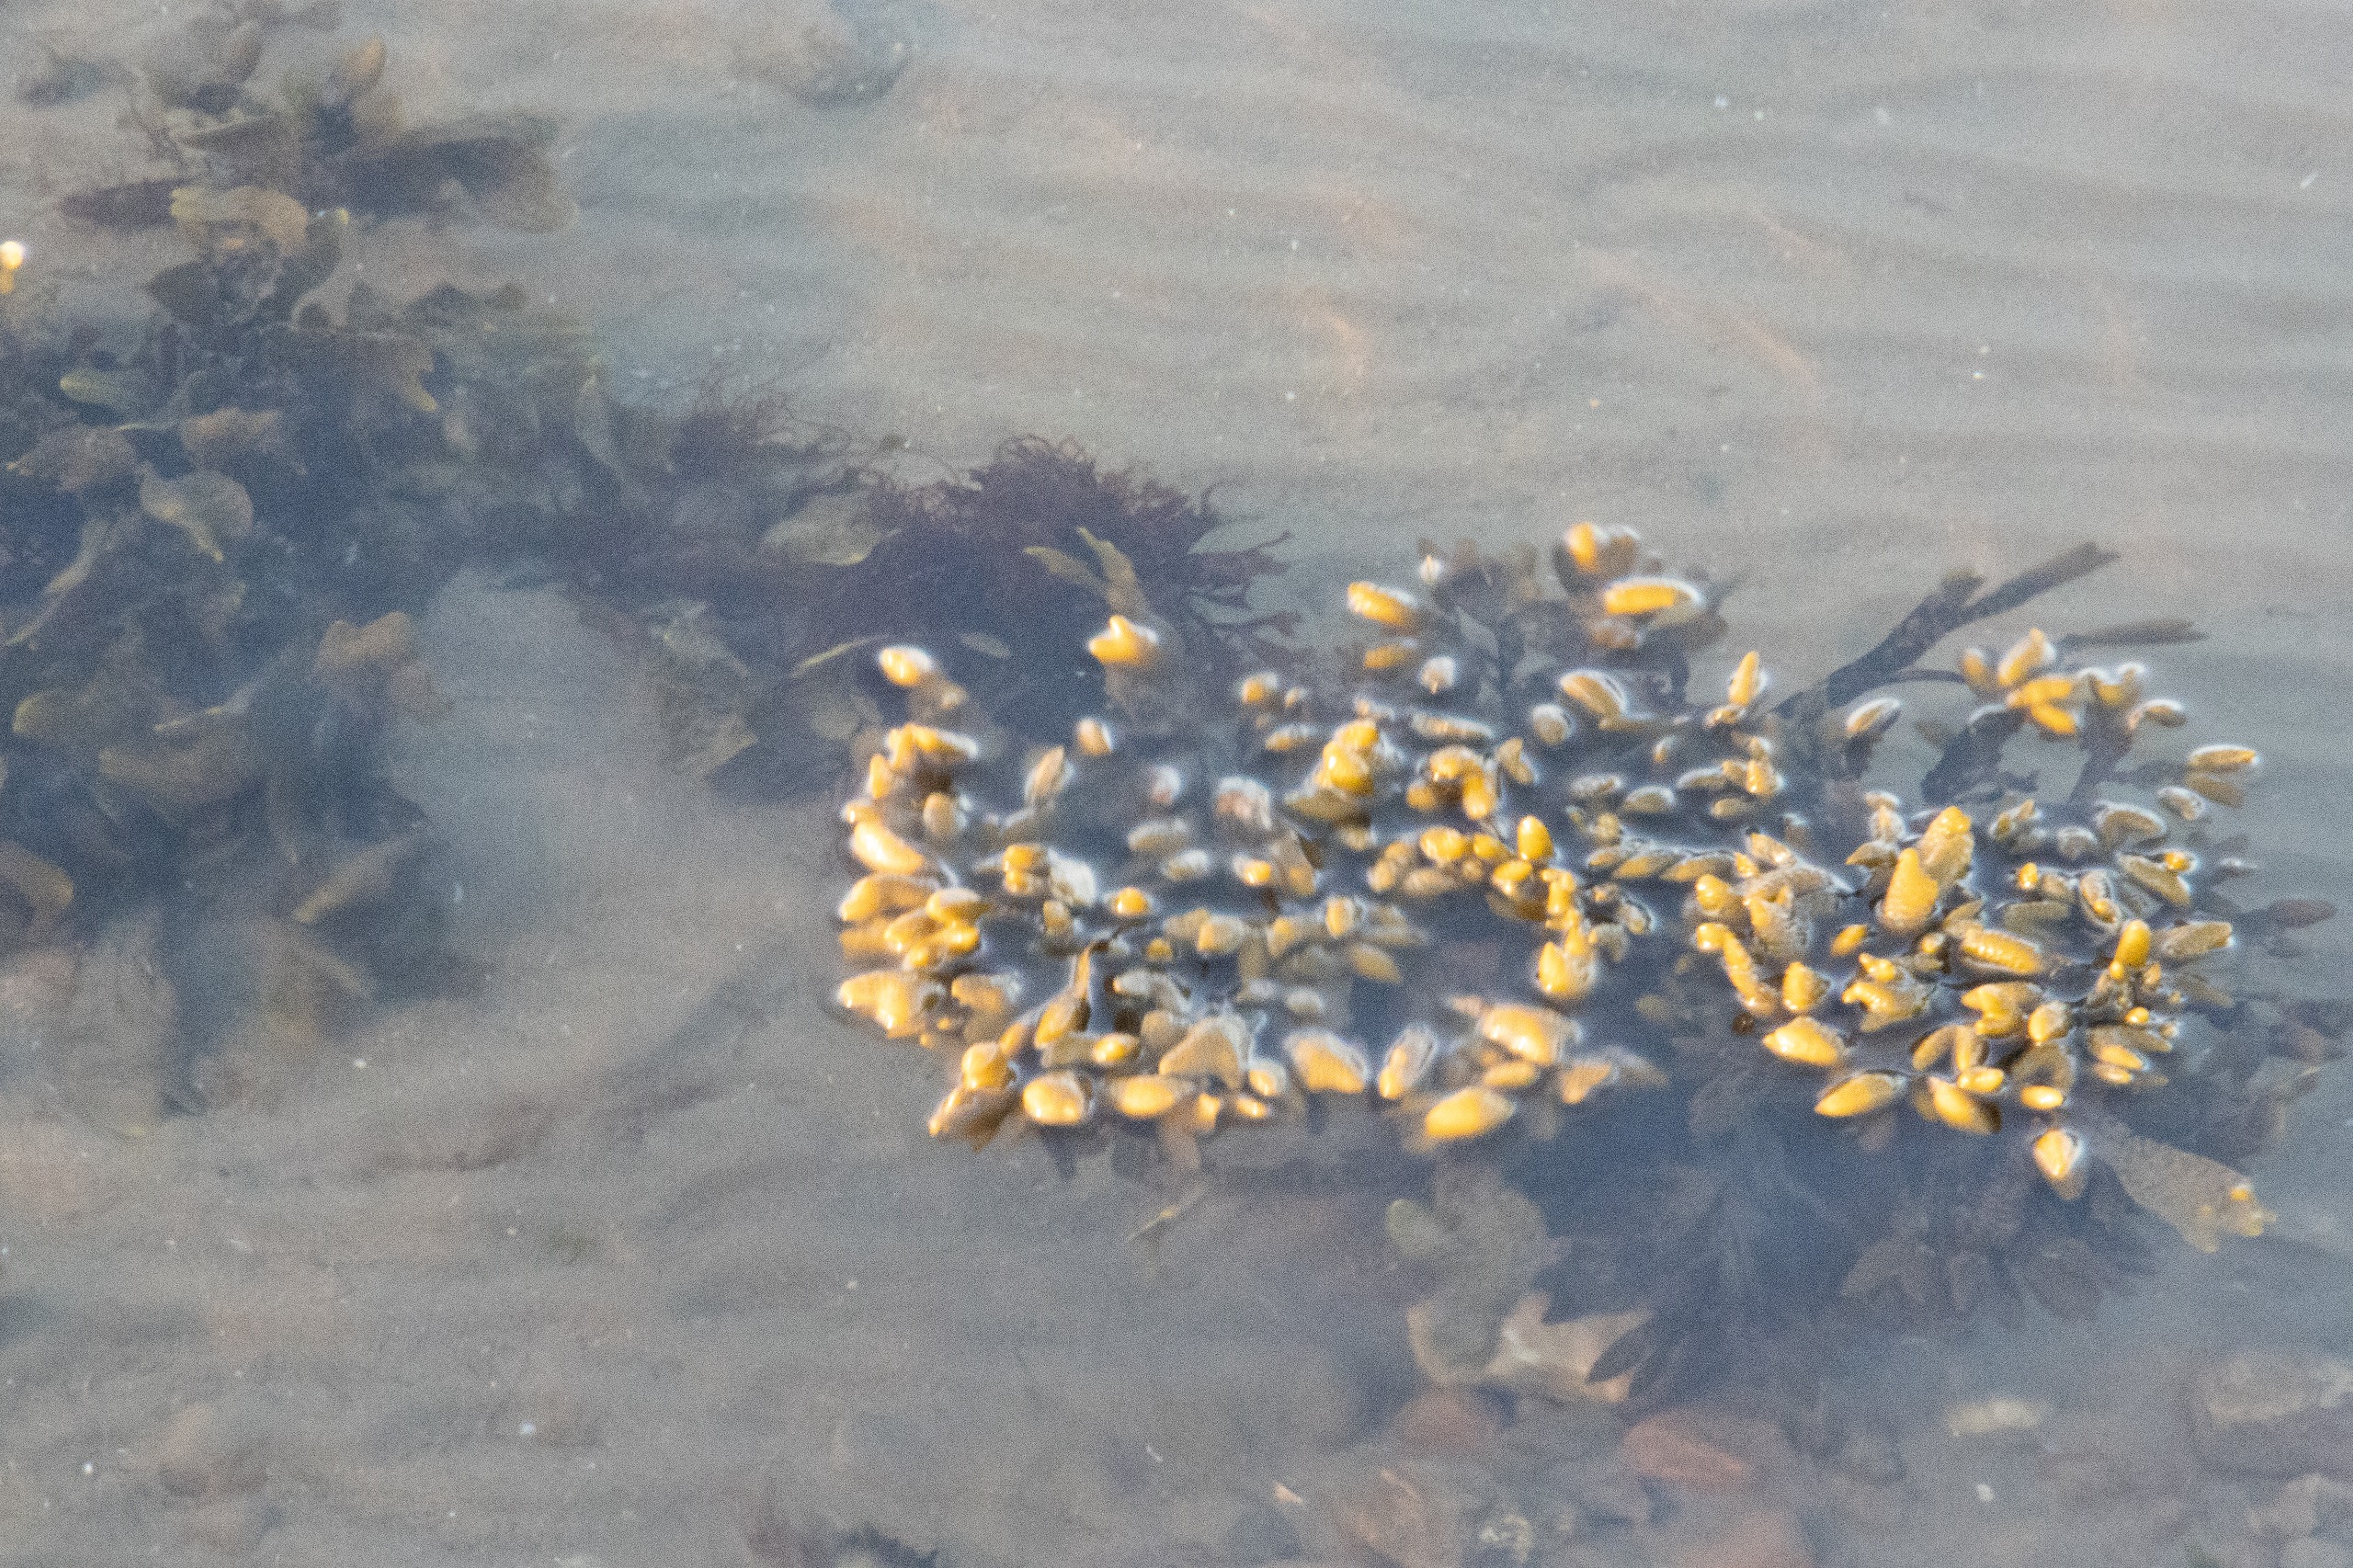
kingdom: Chromista
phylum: Ochrophyta
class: Phaeophyceae
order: Fucales
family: Fucaceae
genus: Fucus
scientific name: Fucus vesiculosus
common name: Blæretang
